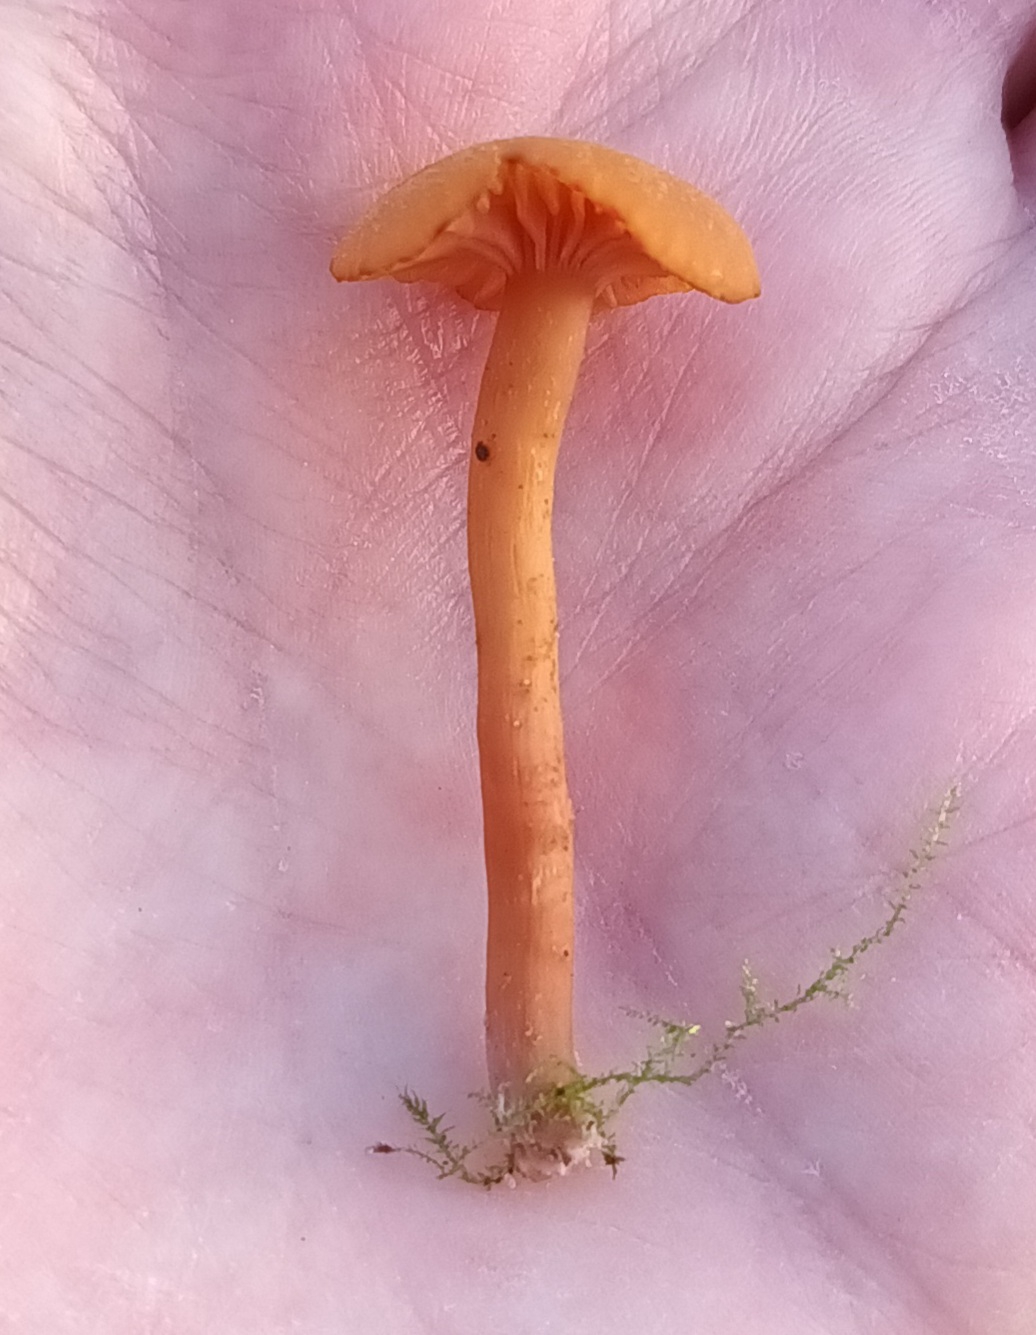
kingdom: Fungi
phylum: Basidiomycota
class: Agaricomycetes
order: Agaricales
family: Hydnangiaceae
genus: Laccaria
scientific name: Laccaria laccata
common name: Rød ametysthat
